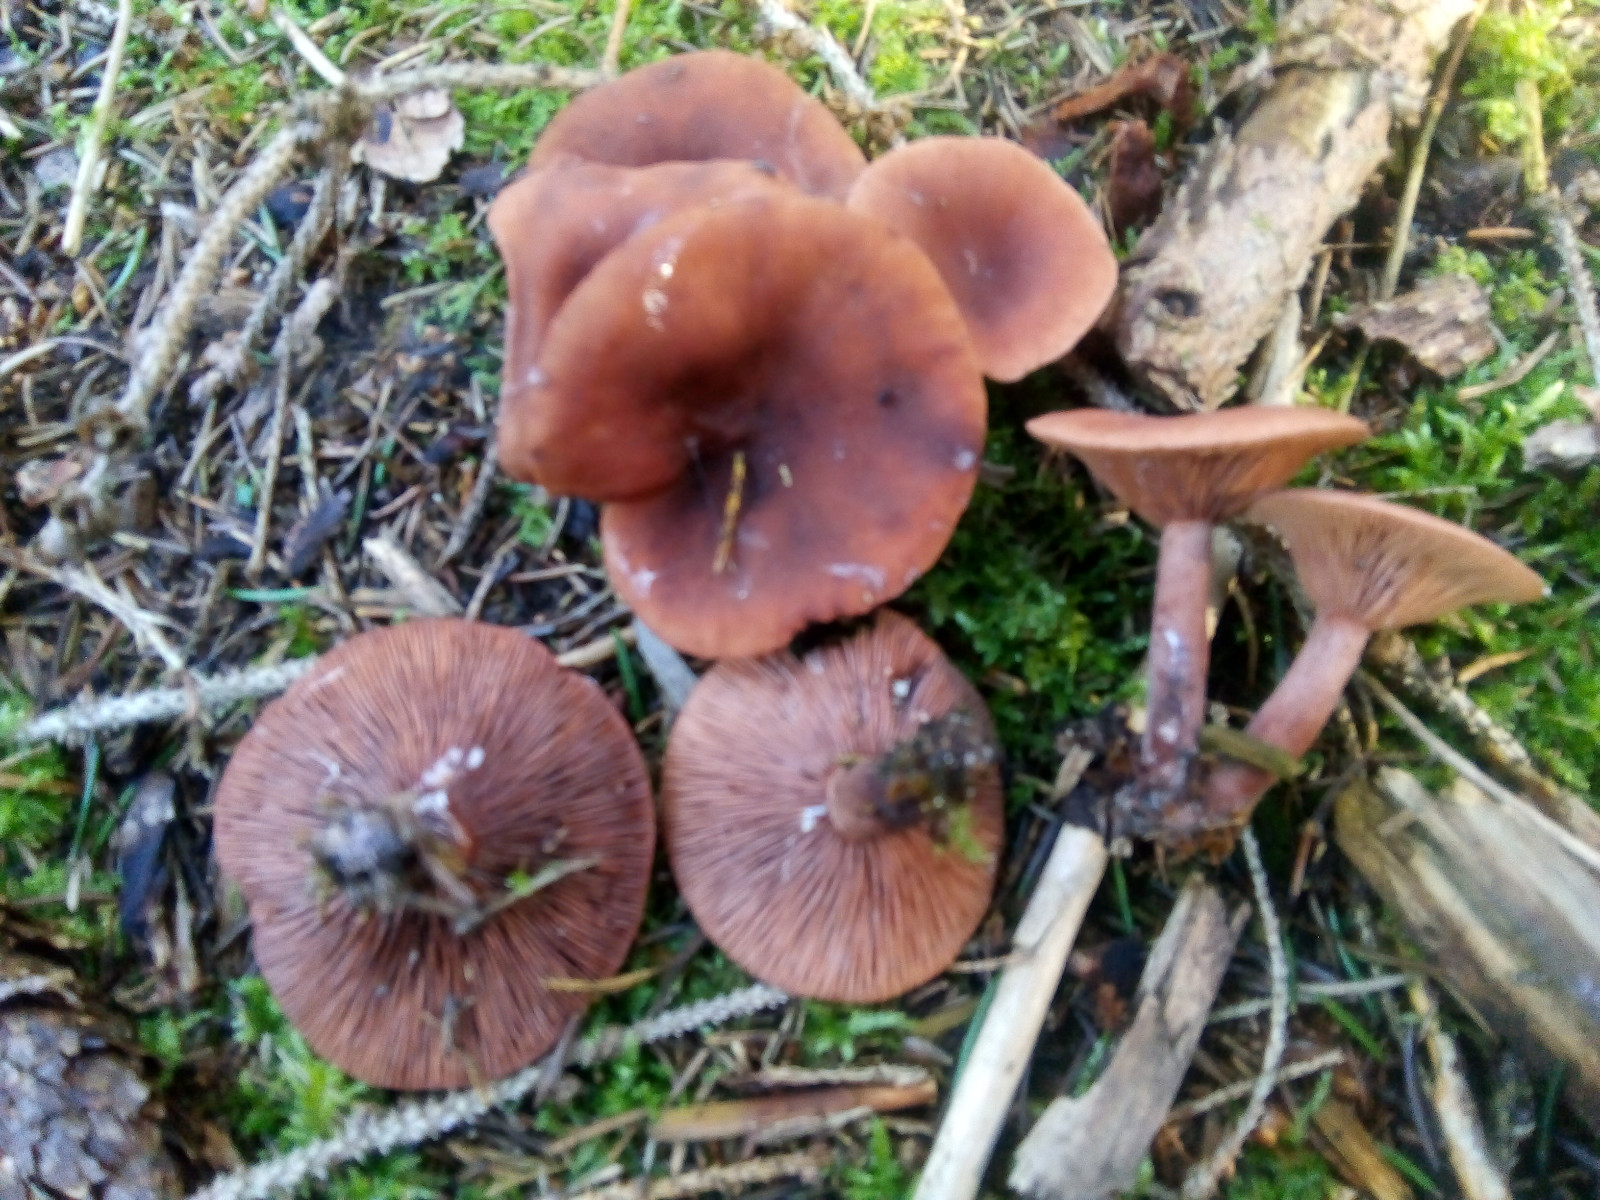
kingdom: Fungi
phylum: Basidiomycota
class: Agaricomycetes
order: Russulales
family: Russulaceae
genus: Lactarius
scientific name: Lactarius camphoratus
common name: kamfer-mælkehat
